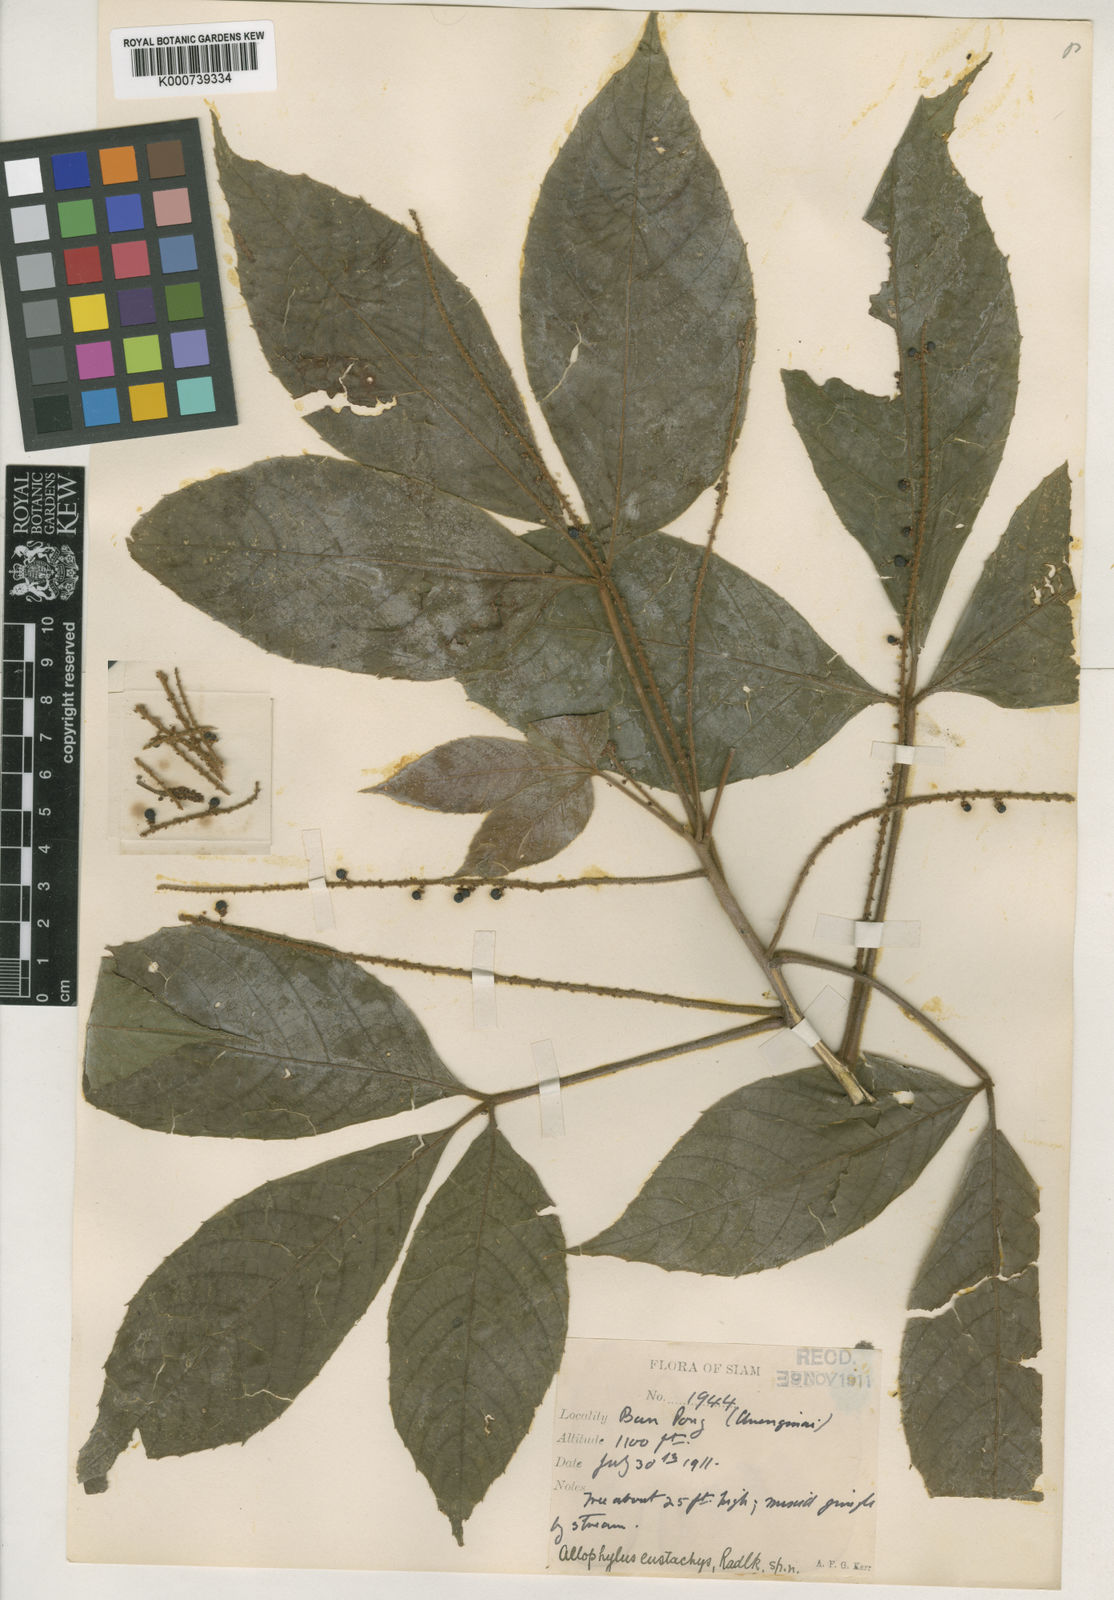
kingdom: Plantae
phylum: Tracheophyta
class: Magnoliopsida
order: Sapindales
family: Sapindaceae
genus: Allophylus
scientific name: Allophylus eustachys
